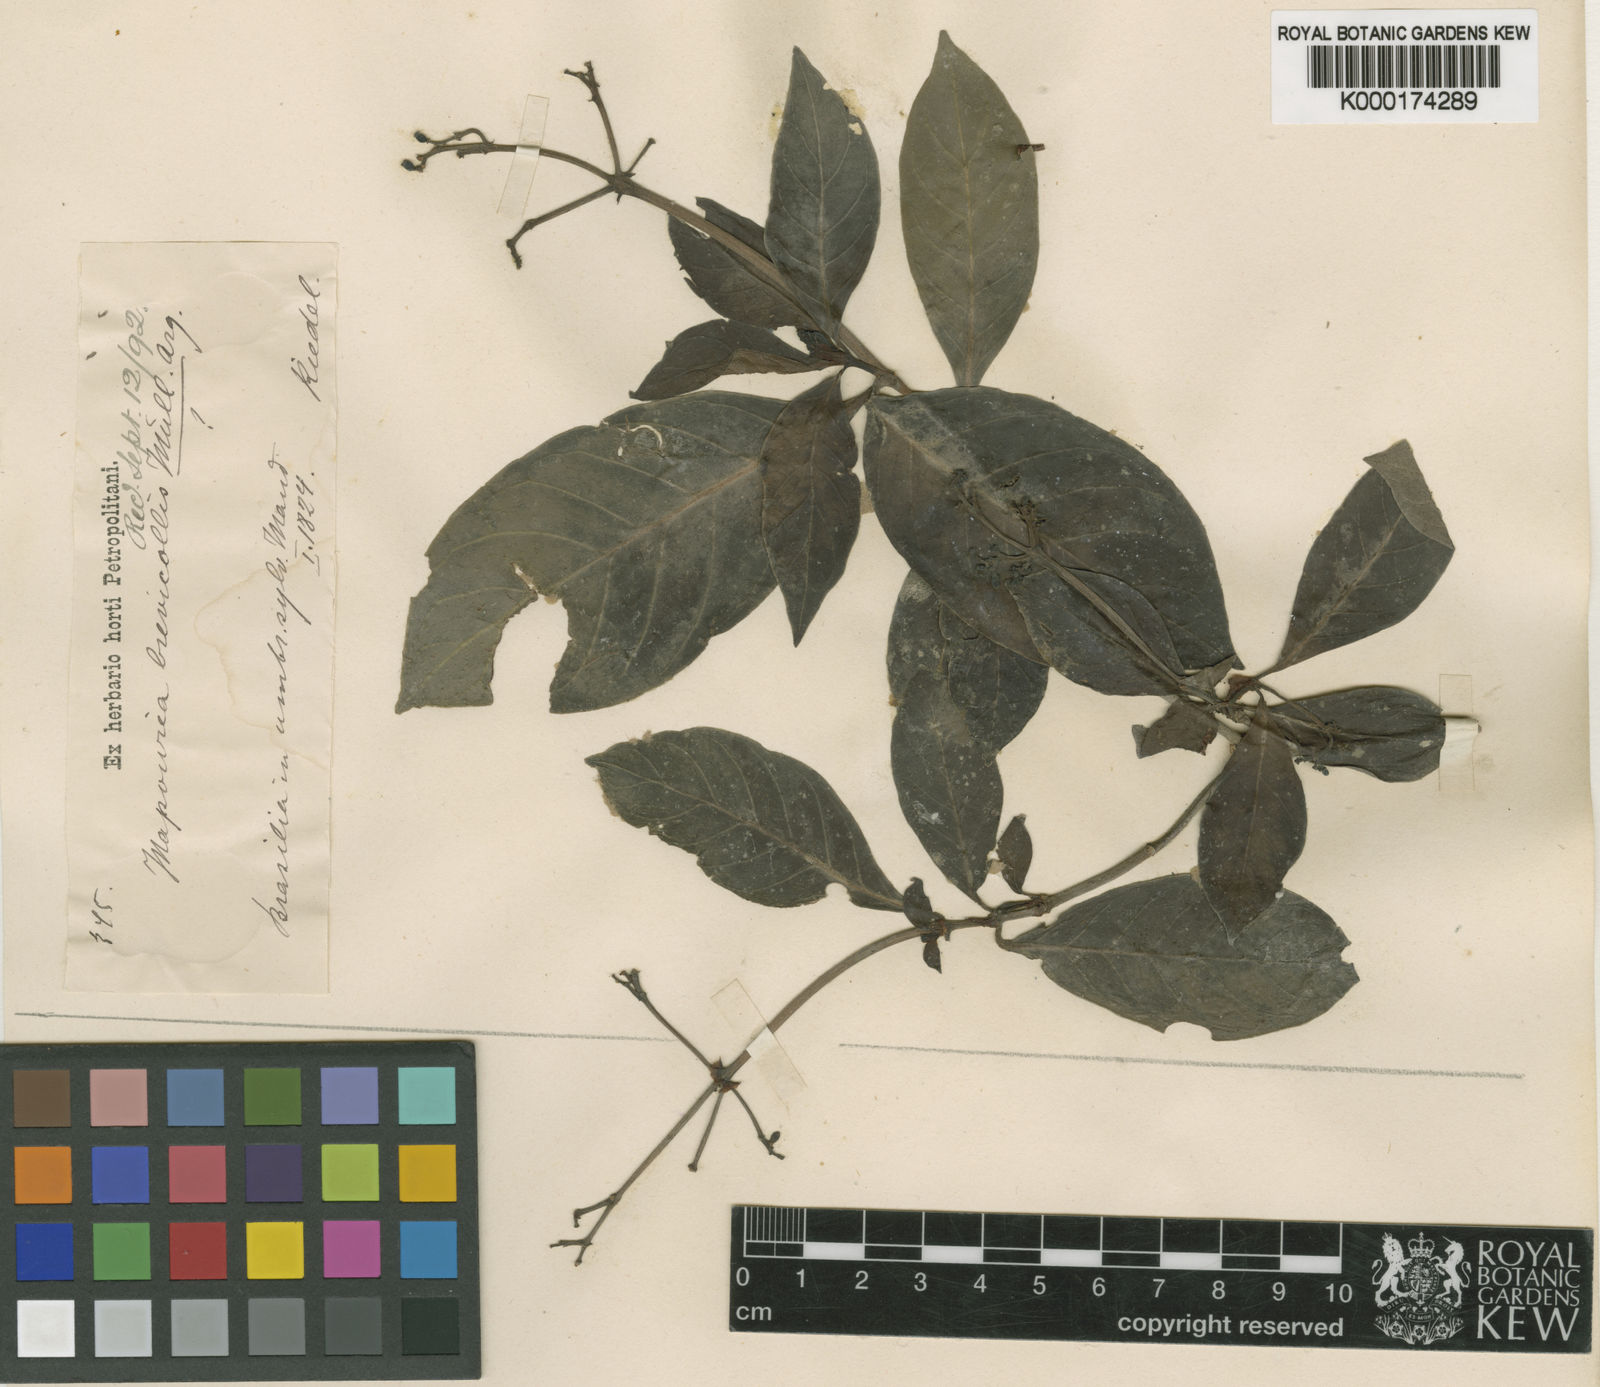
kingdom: Plantae
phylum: Tracheophyta
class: Magnoliopsida
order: Gentianales
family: Rubiaceae
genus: Psychotria
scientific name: Psychotria
